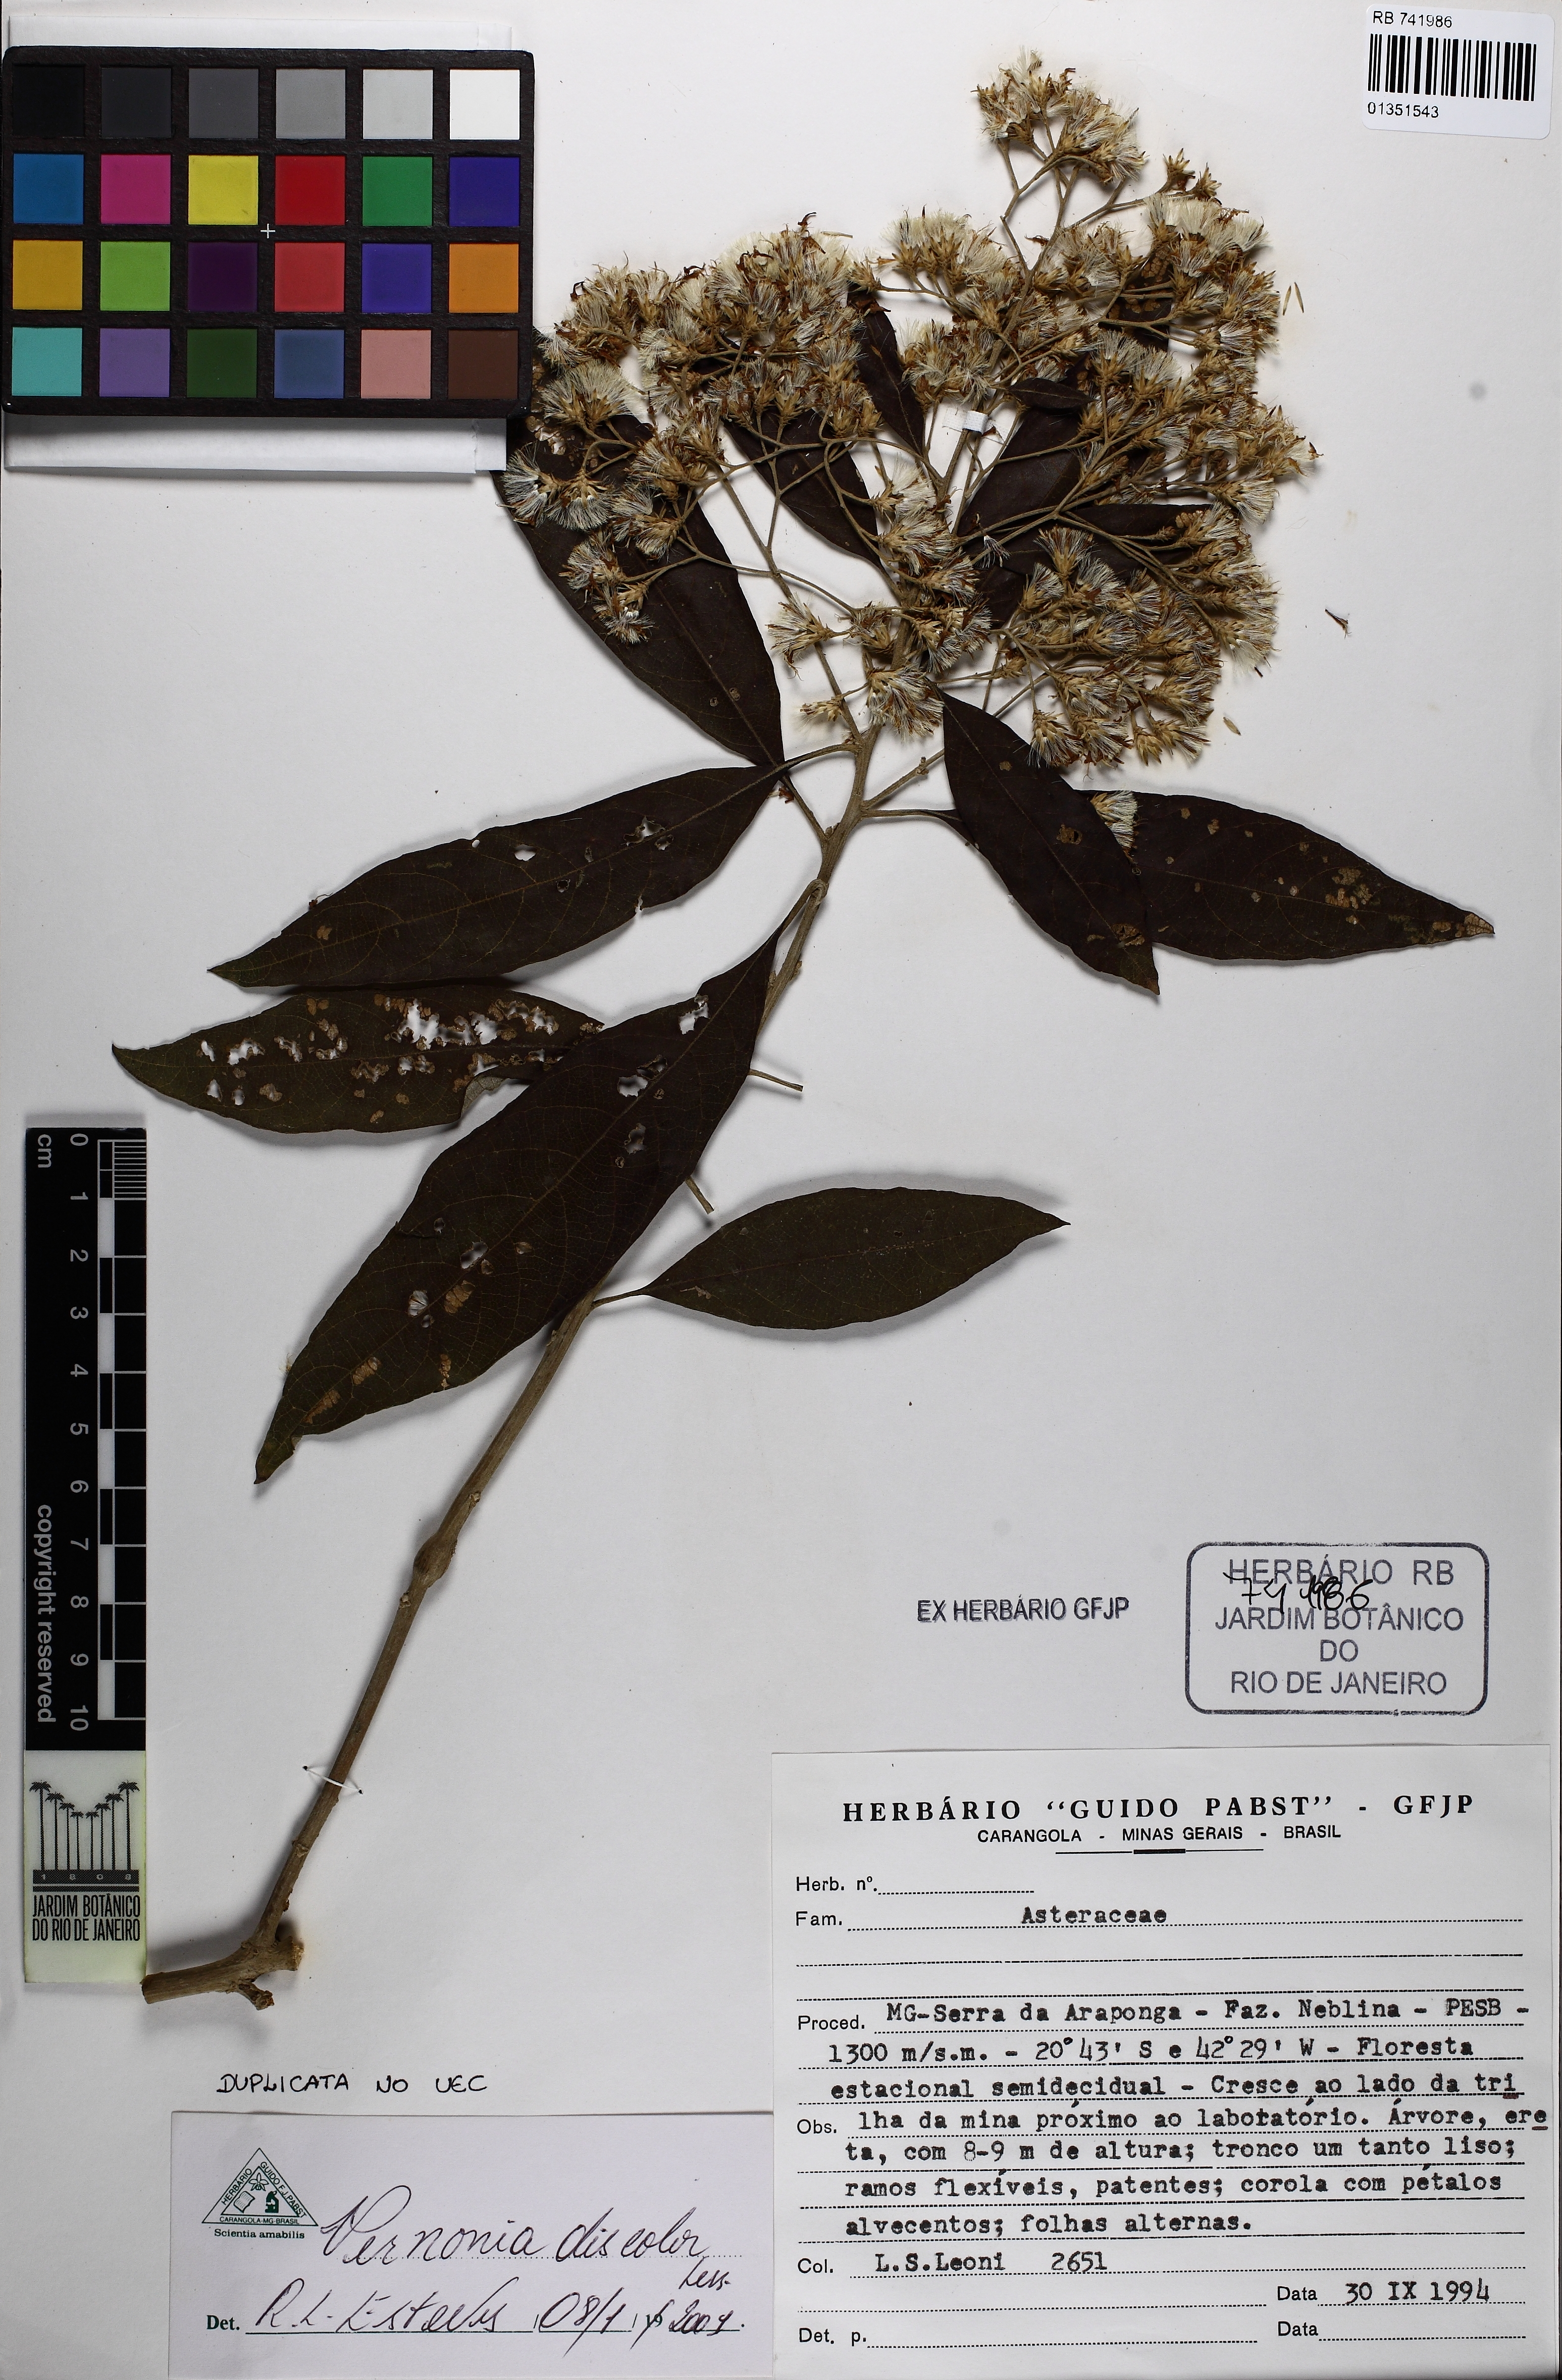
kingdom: Plantae
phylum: Tracheophyta
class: Magnoliopsida
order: Asterales
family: Asteraceae
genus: Vernonanthura
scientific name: Vernonanthura discolor
